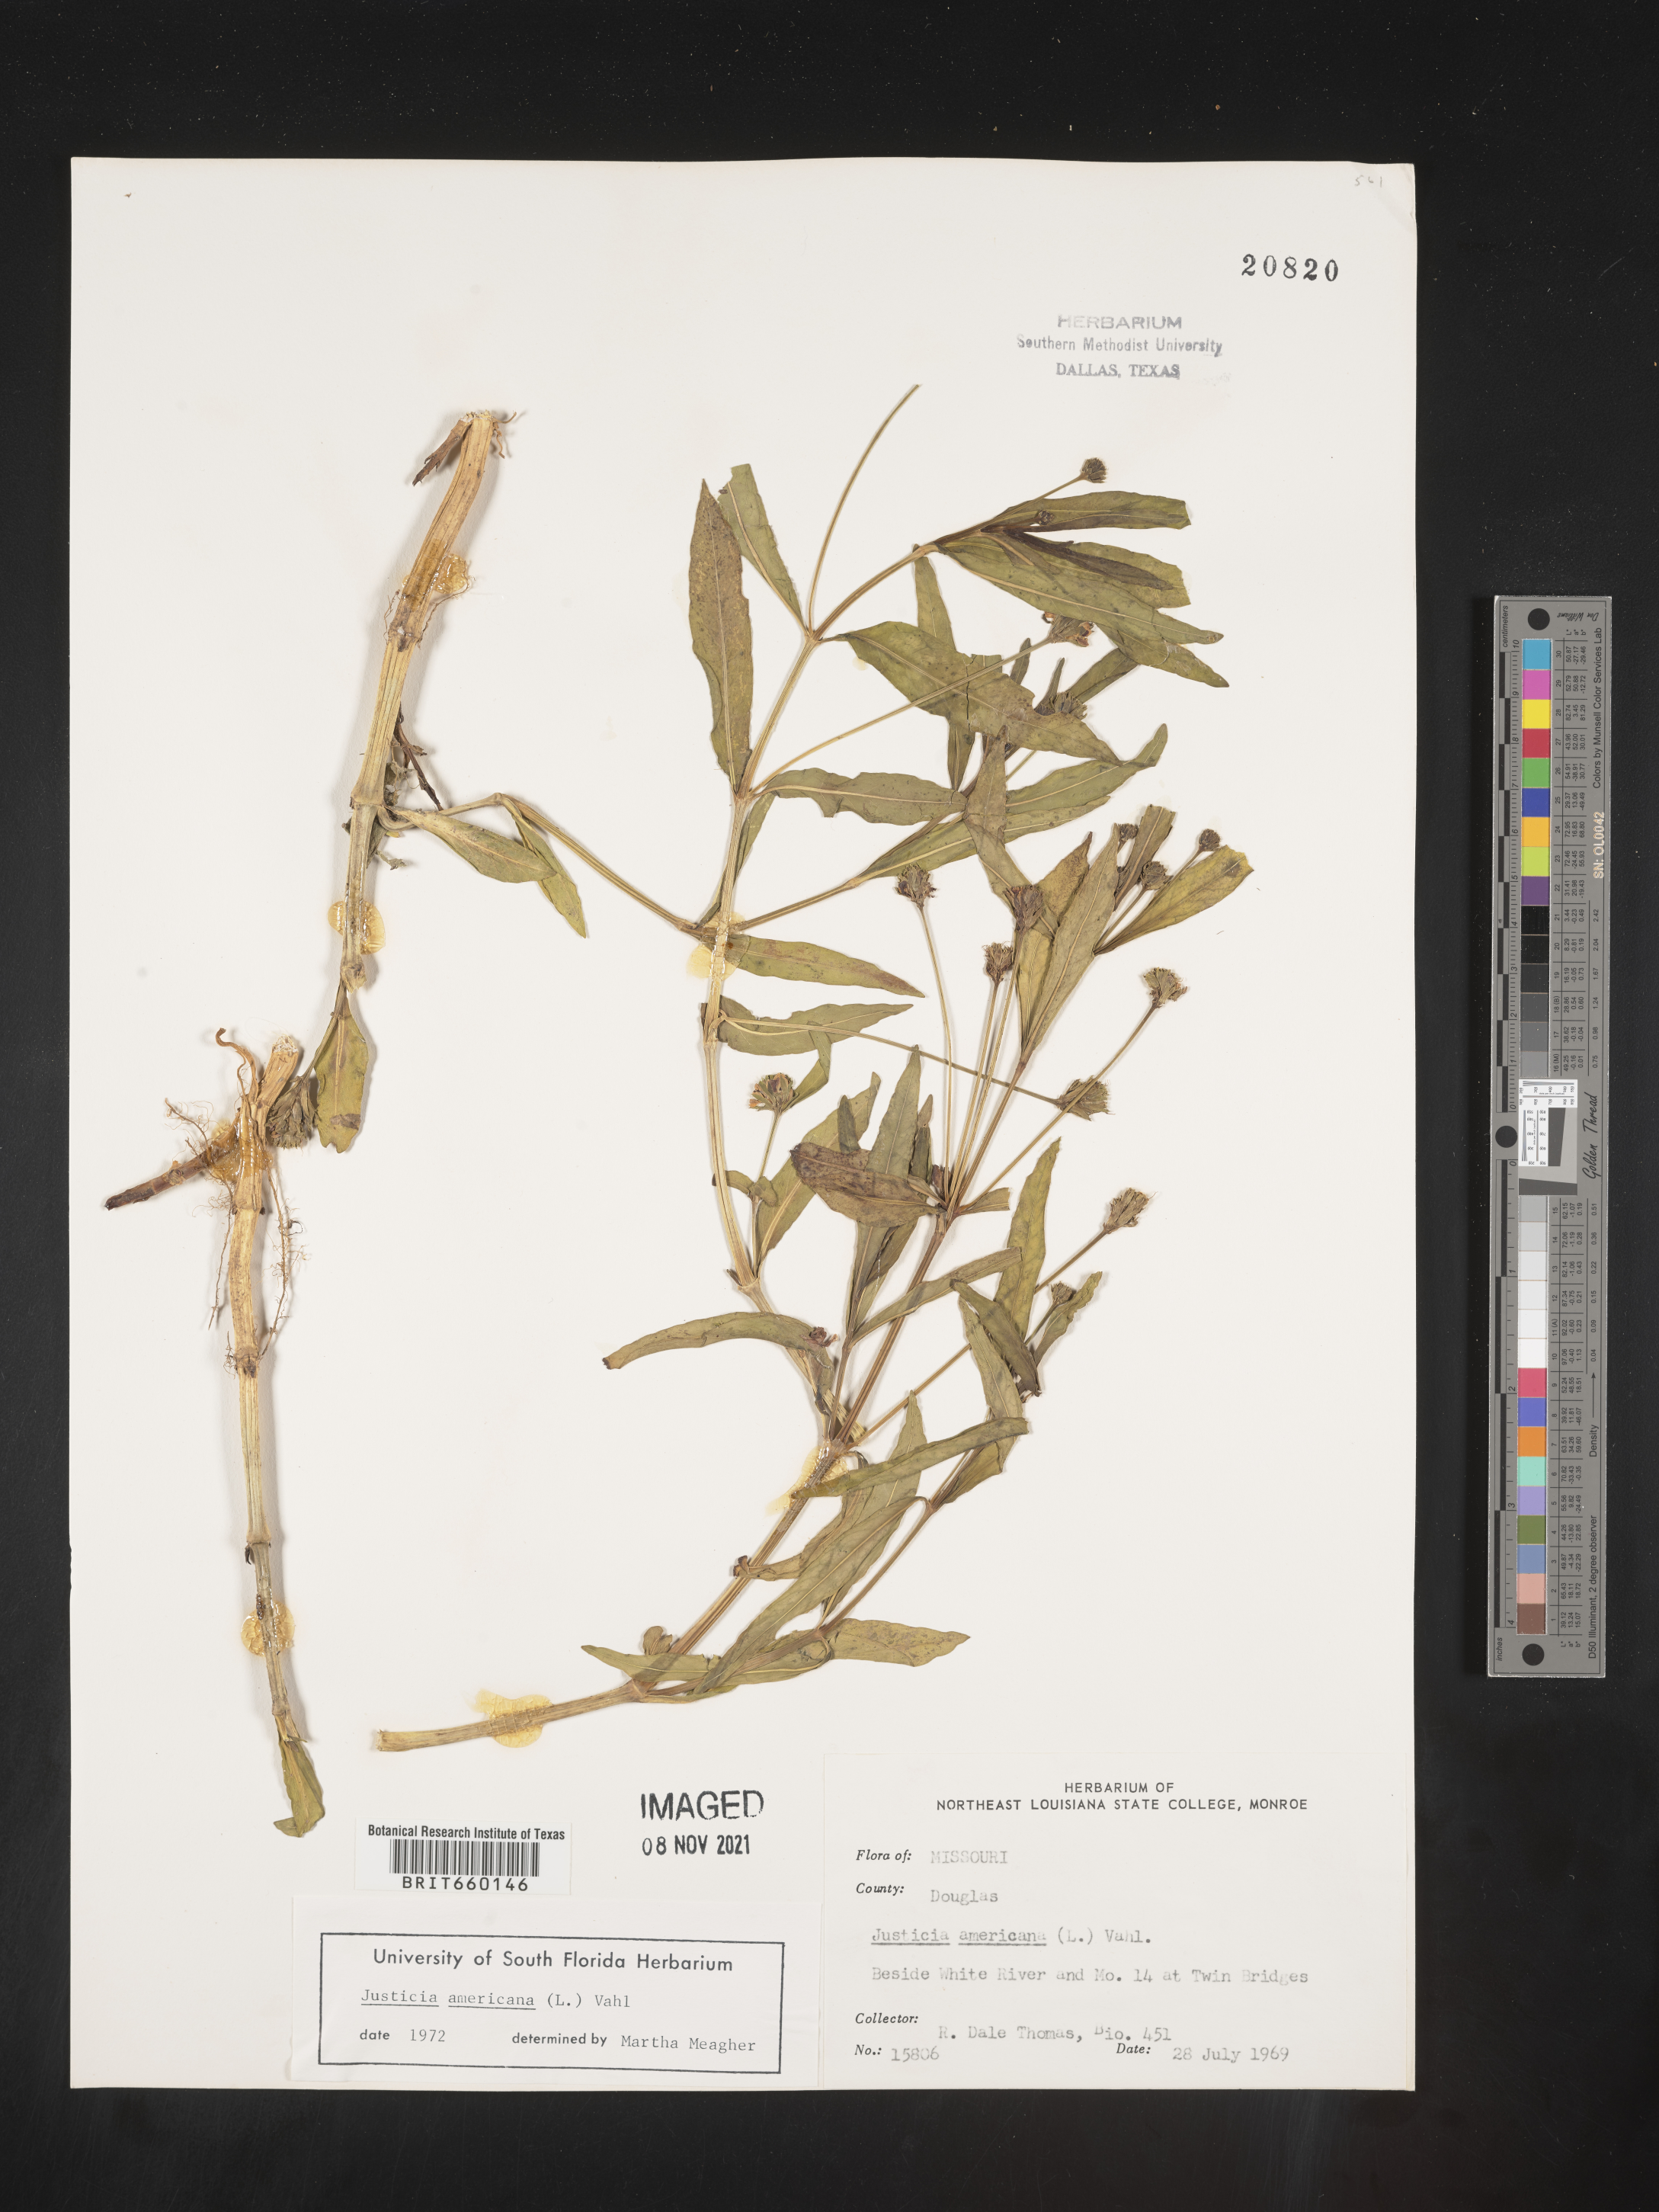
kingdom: Plantae
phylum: Tracheophyta
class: Magnoliopsida
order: Lamiales
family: Acanthaceae
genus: Dianthera
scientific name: Dianthera americana
